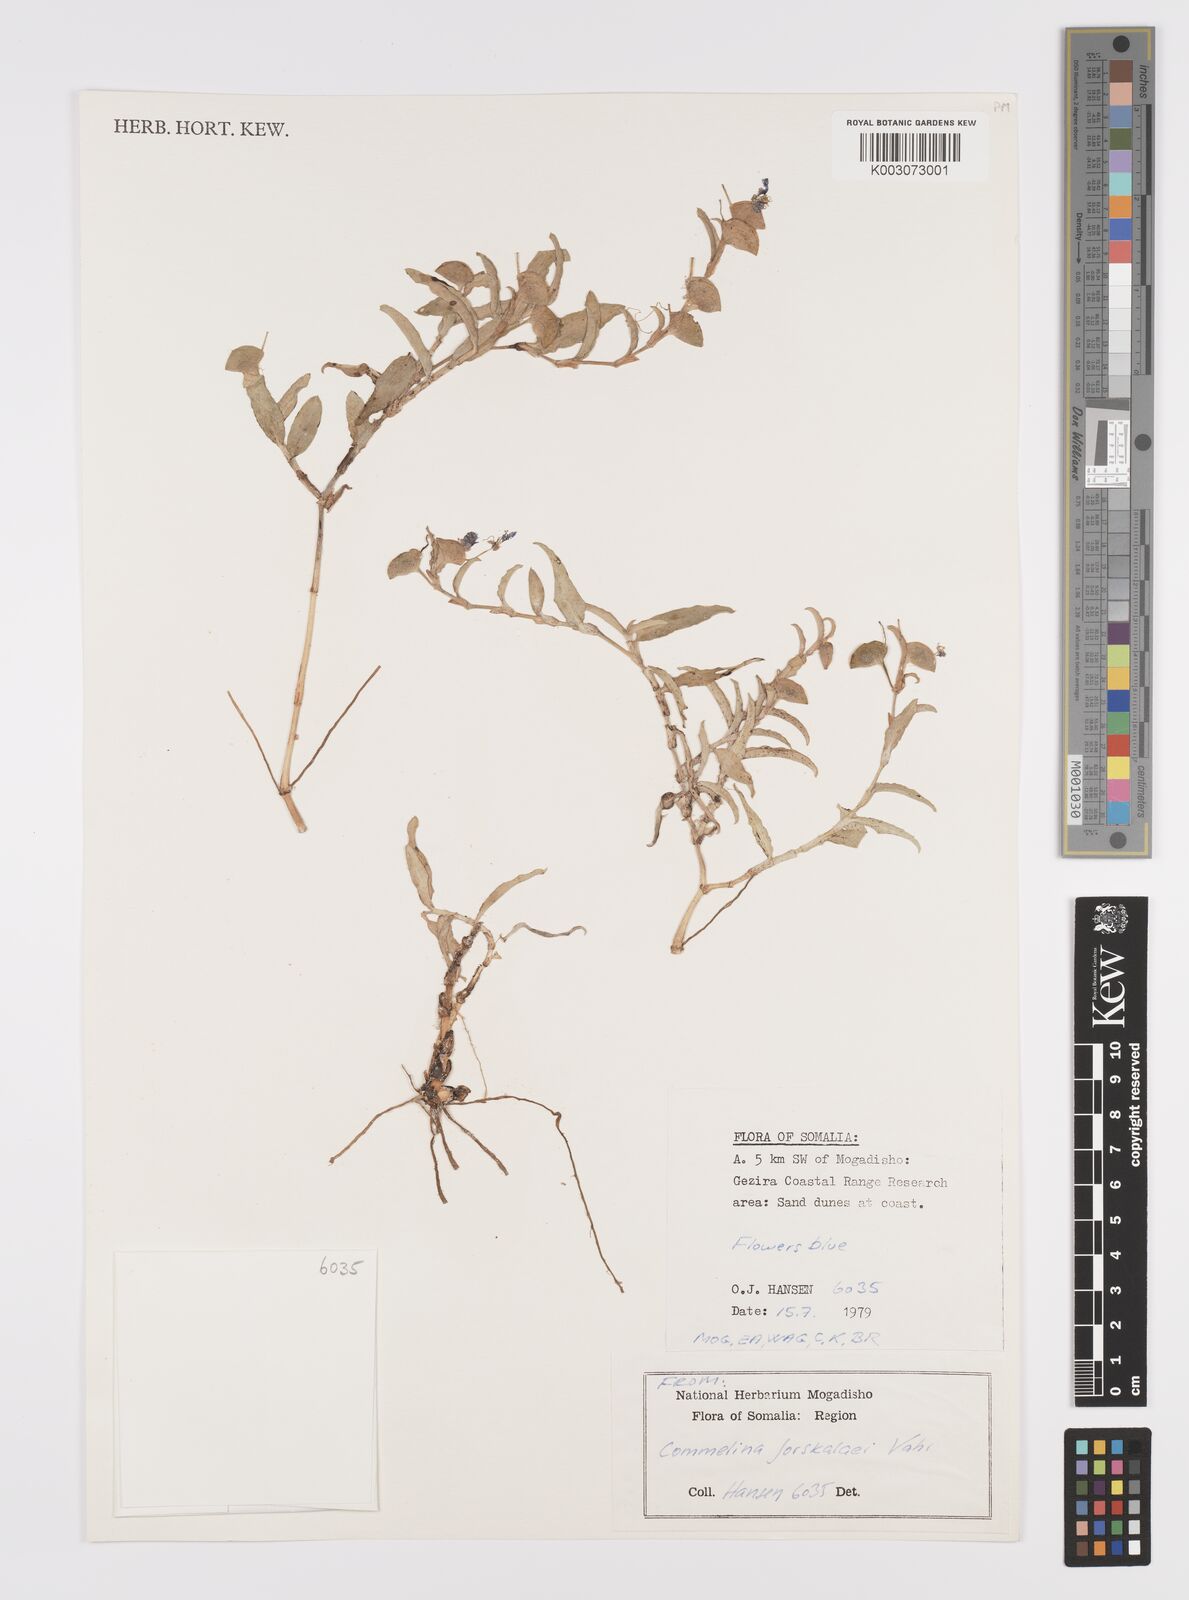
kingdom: Plantae
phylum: Tracheophyta
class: Liliopsida
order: Commelinales
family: Commelinaceae
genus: Commelina
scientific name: Commelina forskaolii
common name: Rat's ear
